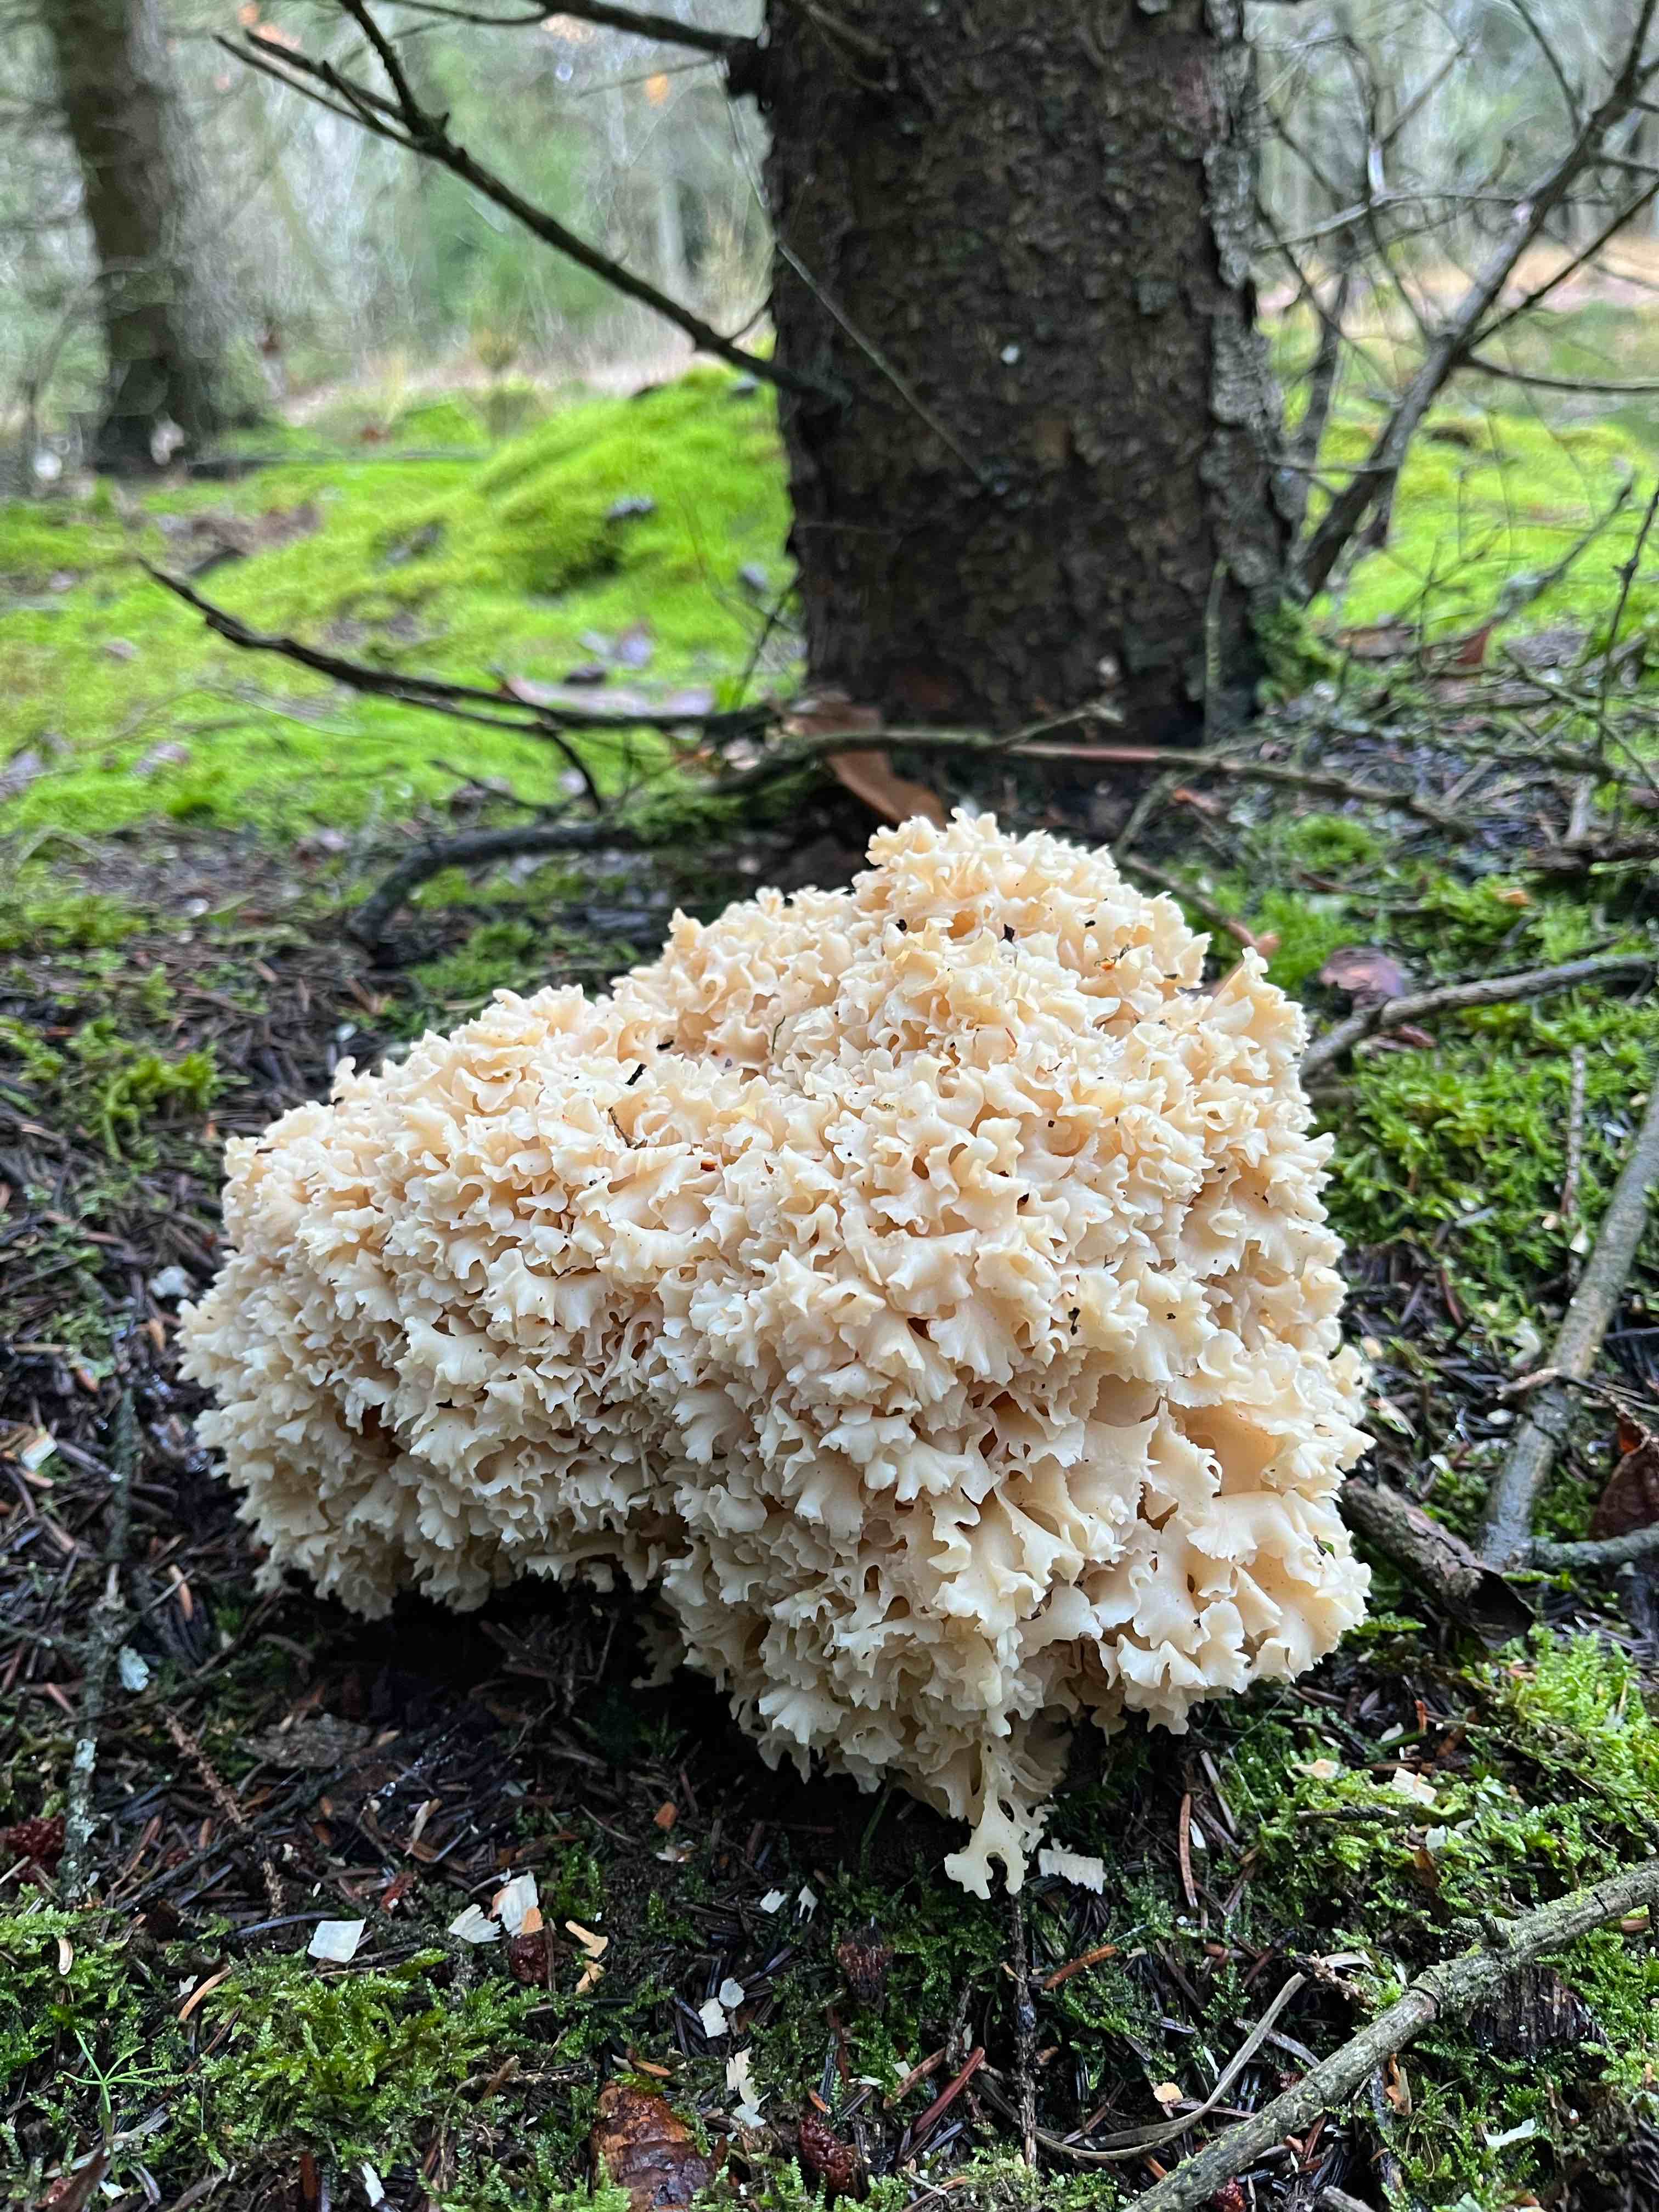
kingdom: Fungi
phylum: Basidiomycota
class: Agaricomycetes
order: Polyporales
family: Sparassidaceae
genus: Sparassis
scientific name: Sparassis crispa
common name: kruset blomkålssvamp
